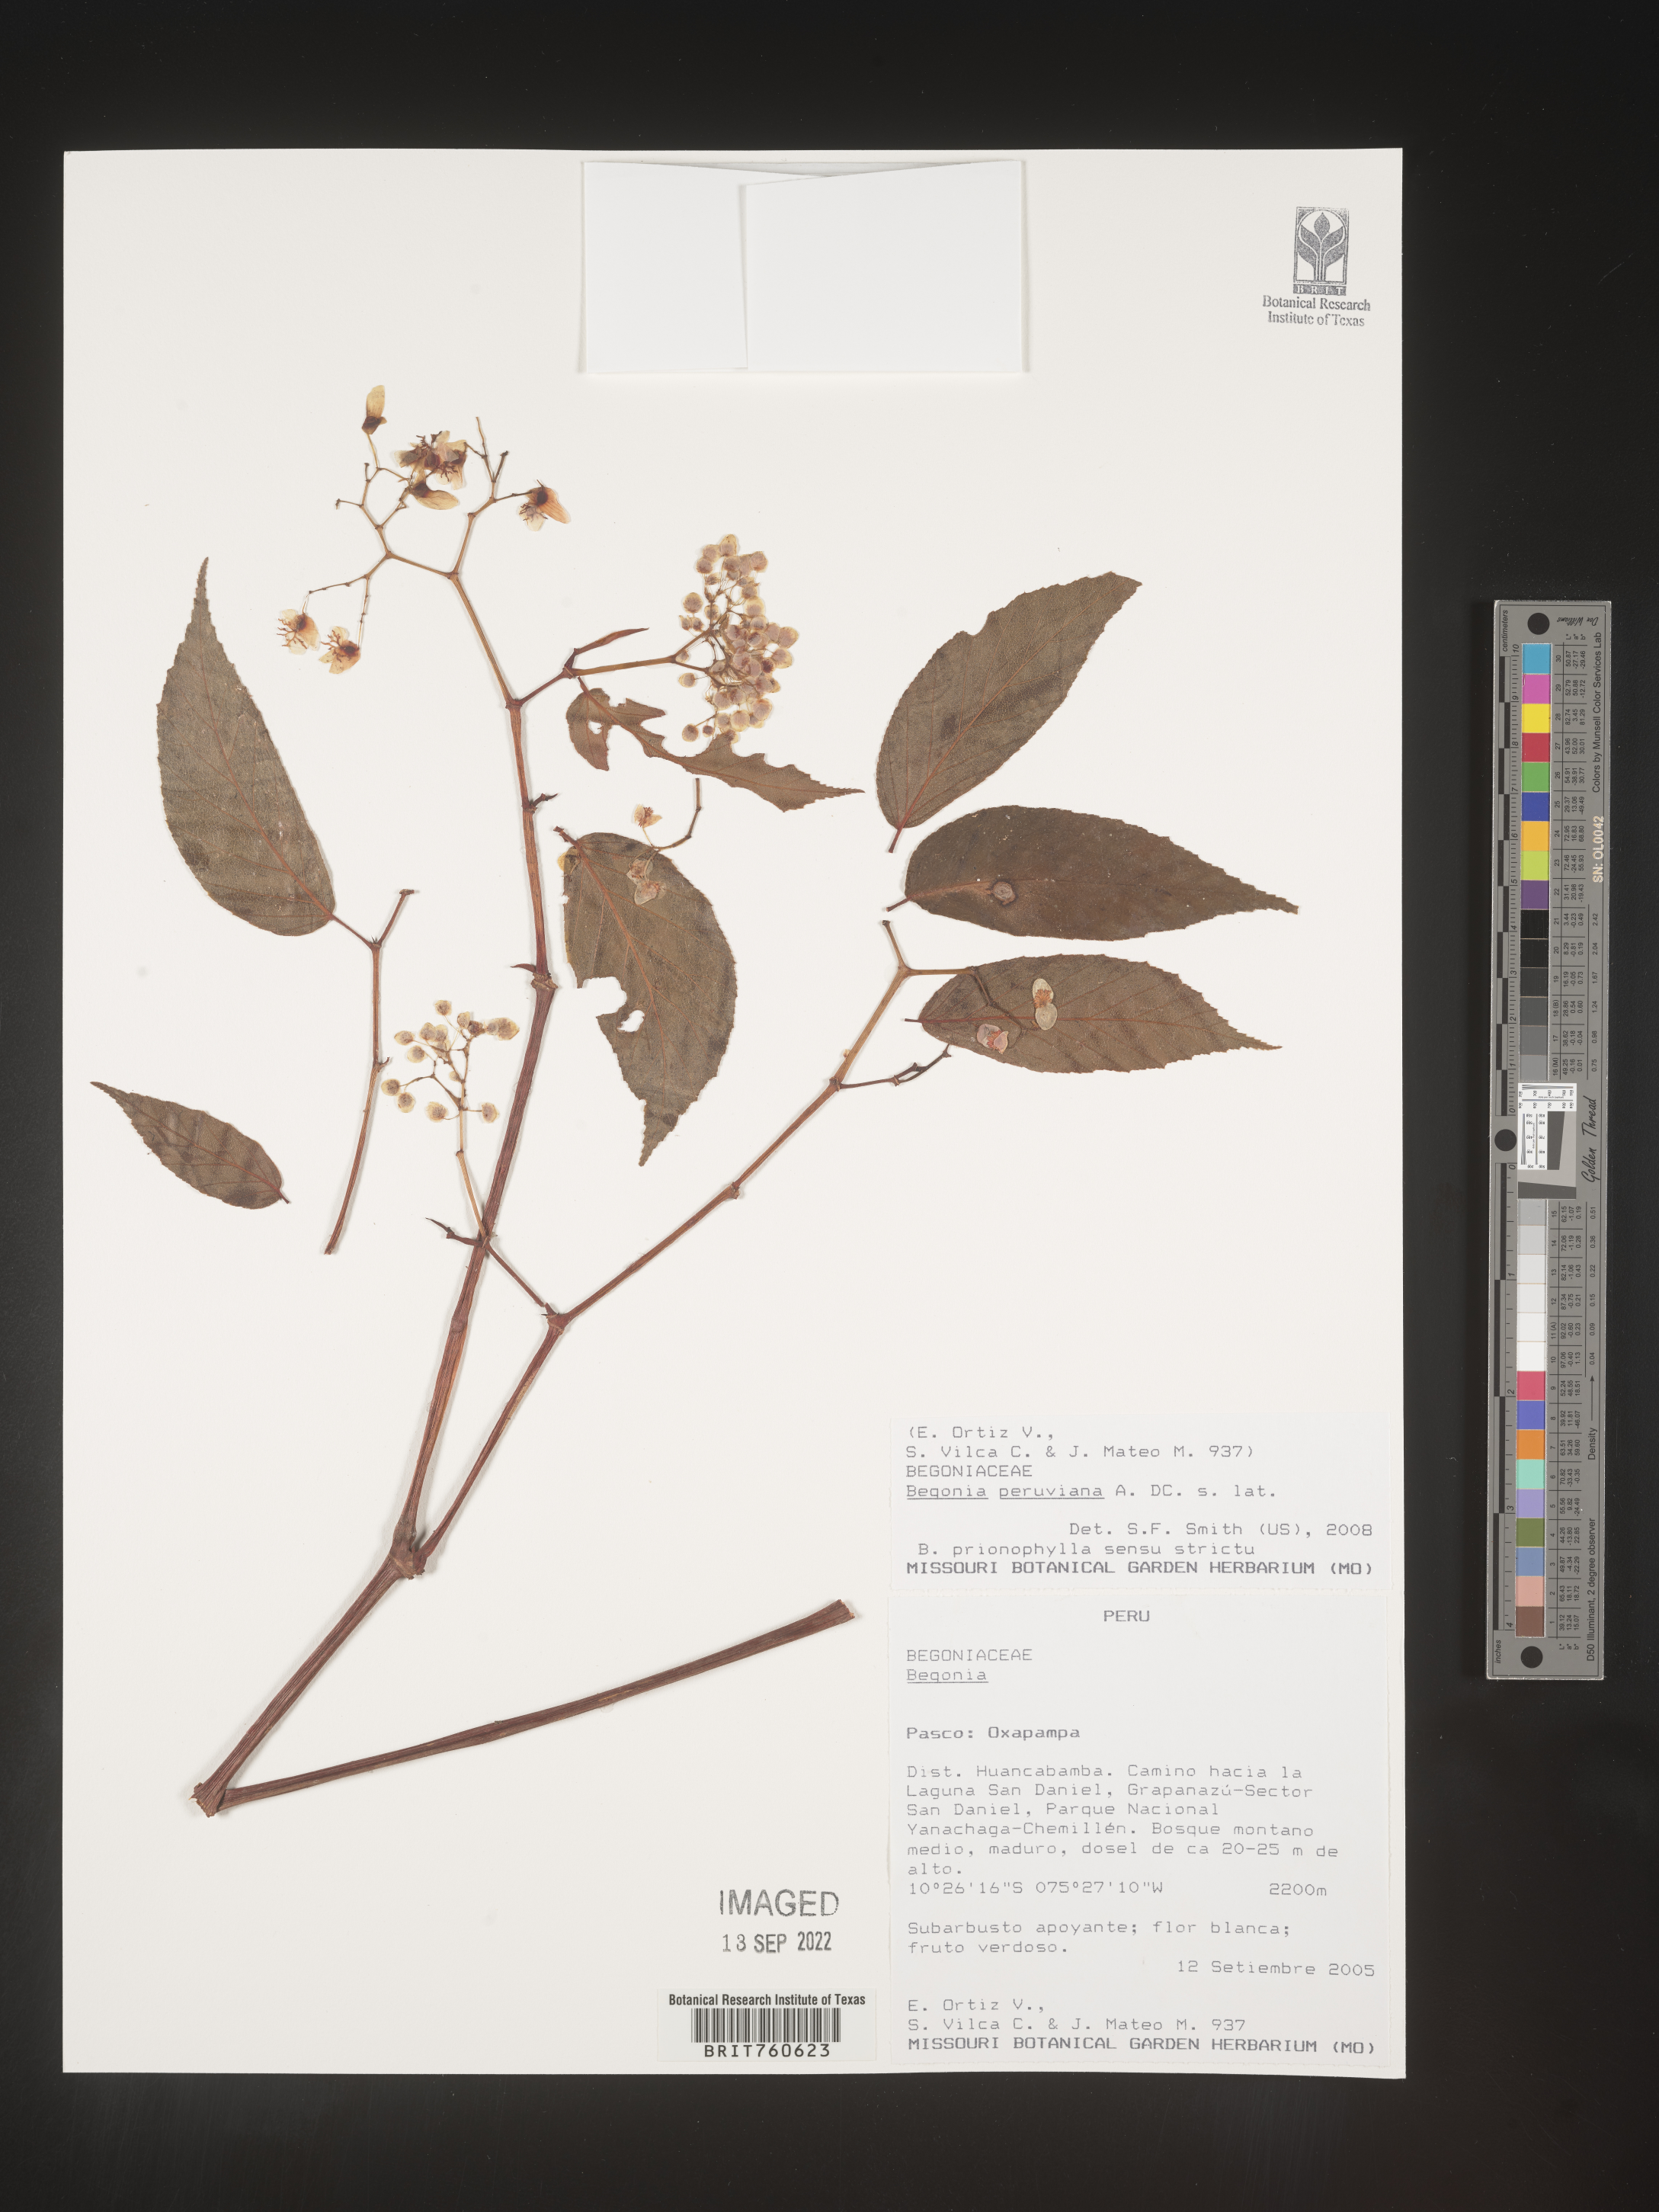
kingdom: Plantae
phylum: Tracheophyta
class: Magnoliopsida
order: Cucurbitales
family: Begoniaceae
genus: Begonia
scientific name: Begonia
